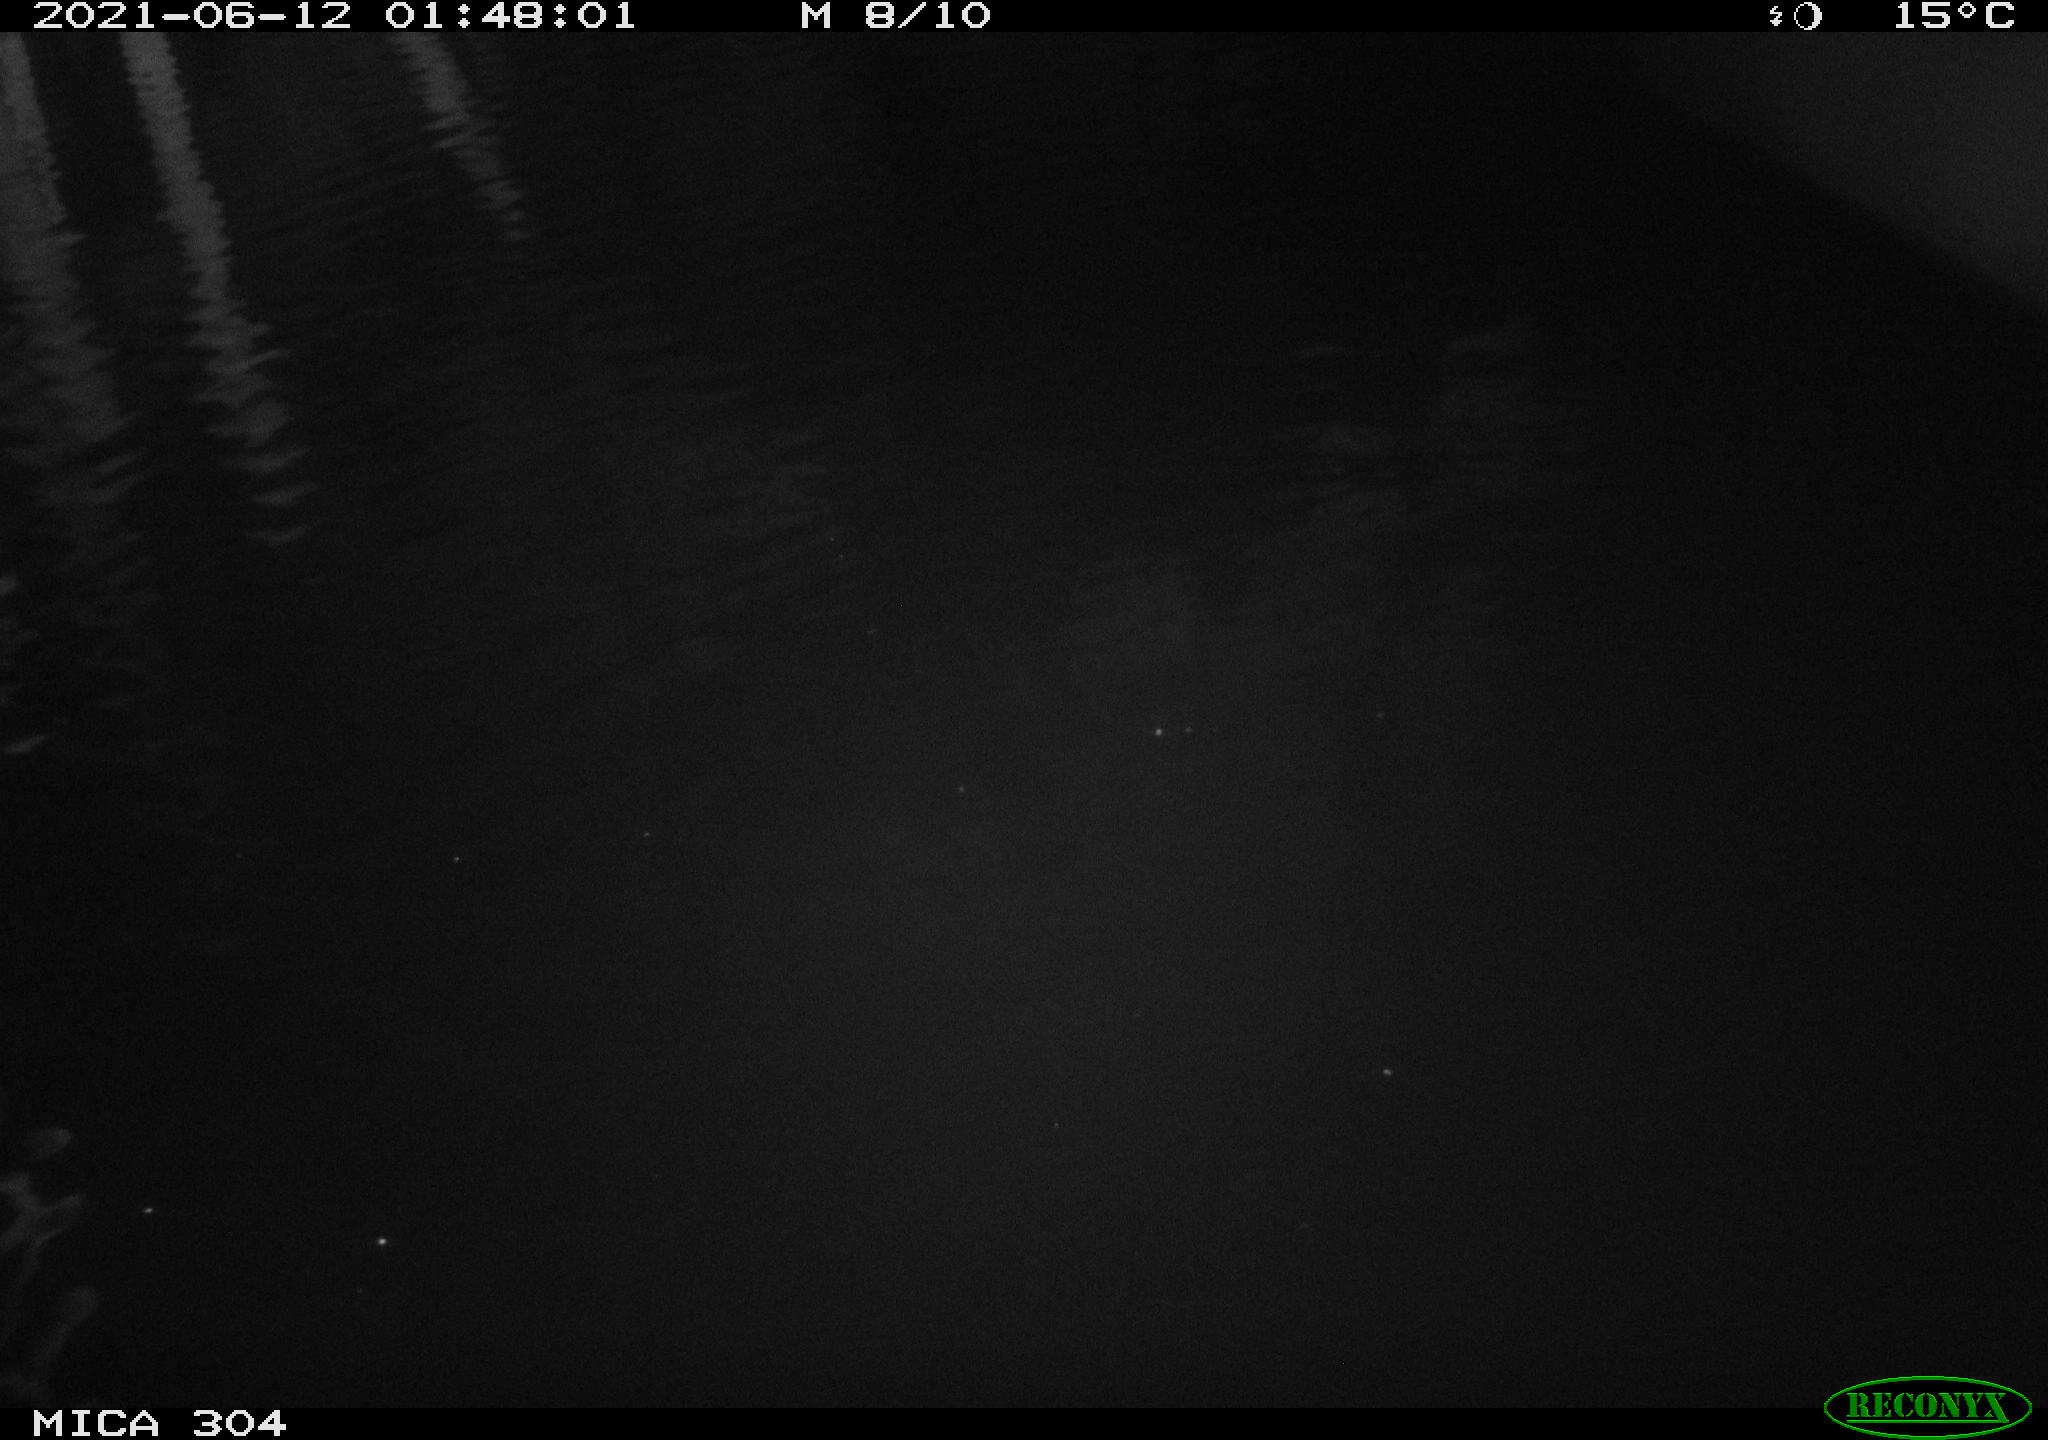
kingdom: Animalia
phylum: Chordata
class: Mammalia
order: Rodentia
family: Cricetidae
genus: Ondatra
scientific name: Ondatra zibethicus
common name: Muskrat
